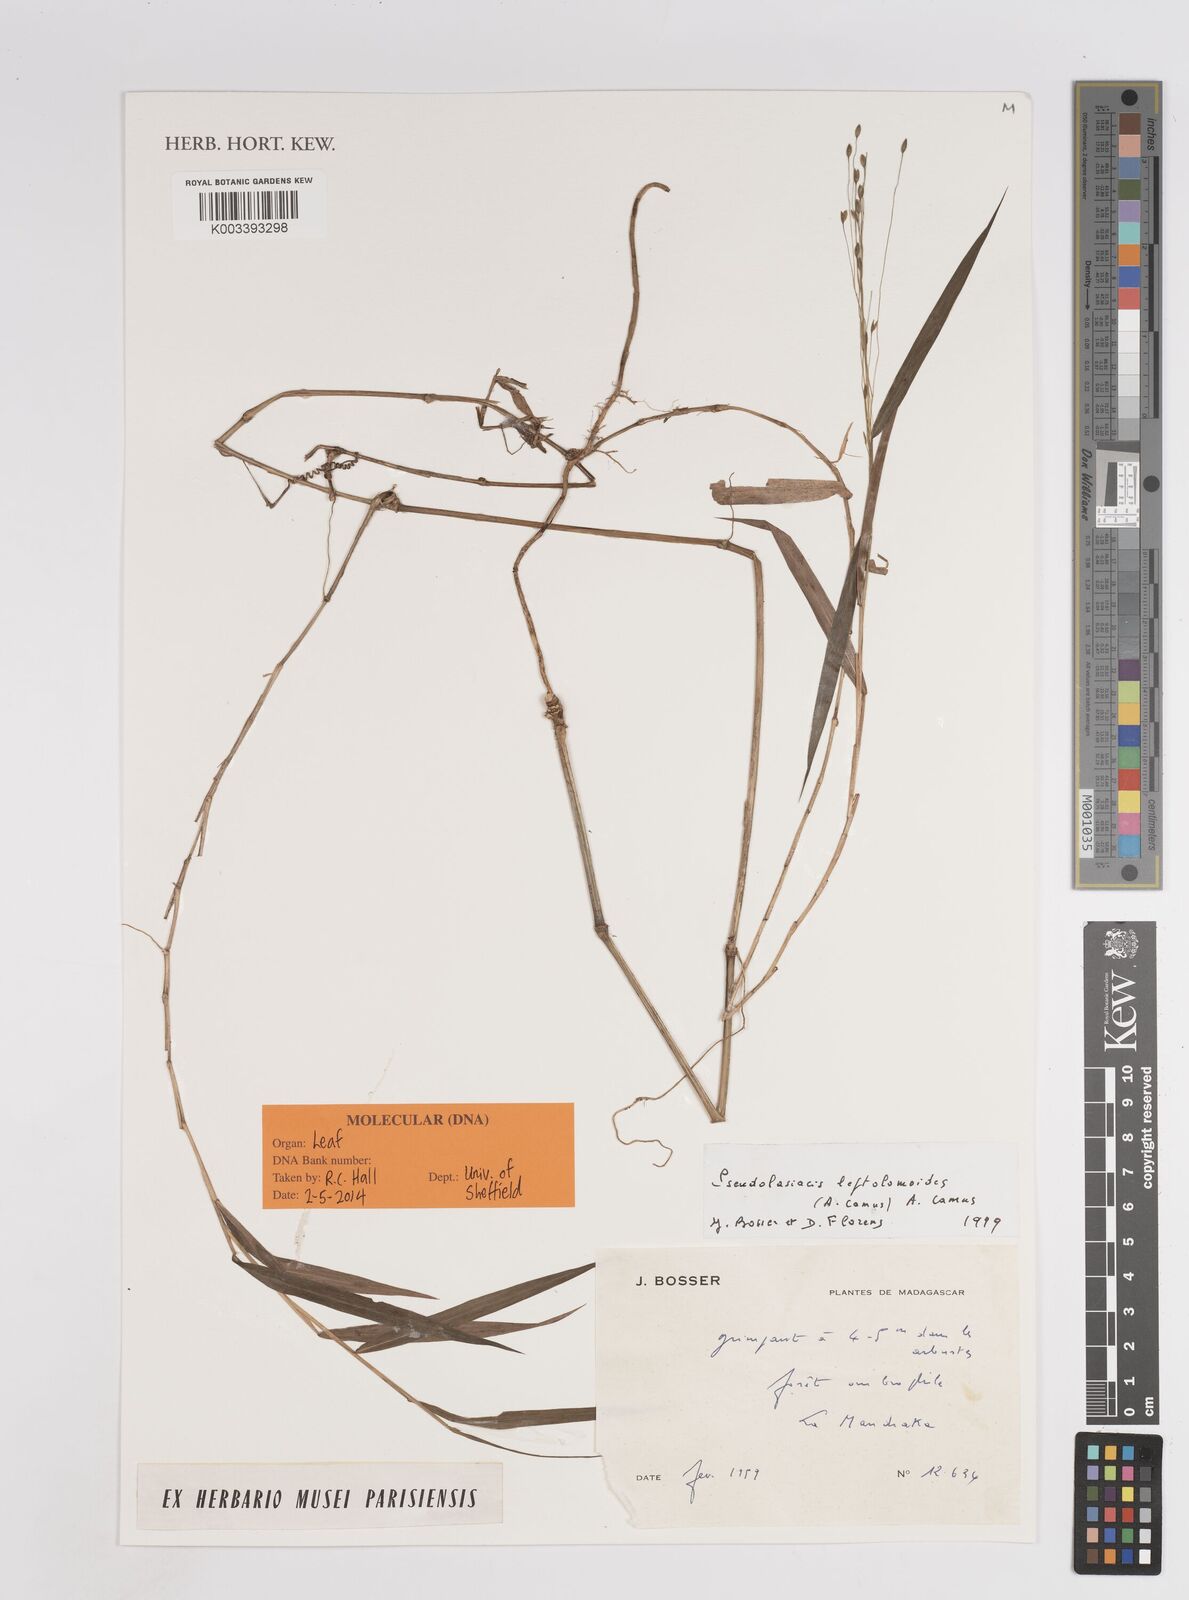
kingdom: Plantae
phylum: Tracheophyta
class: Liliopsida
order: Poales
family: Poaceae
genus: Pseudolasiacis
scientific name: Pseudolasiacis leptolomoides
